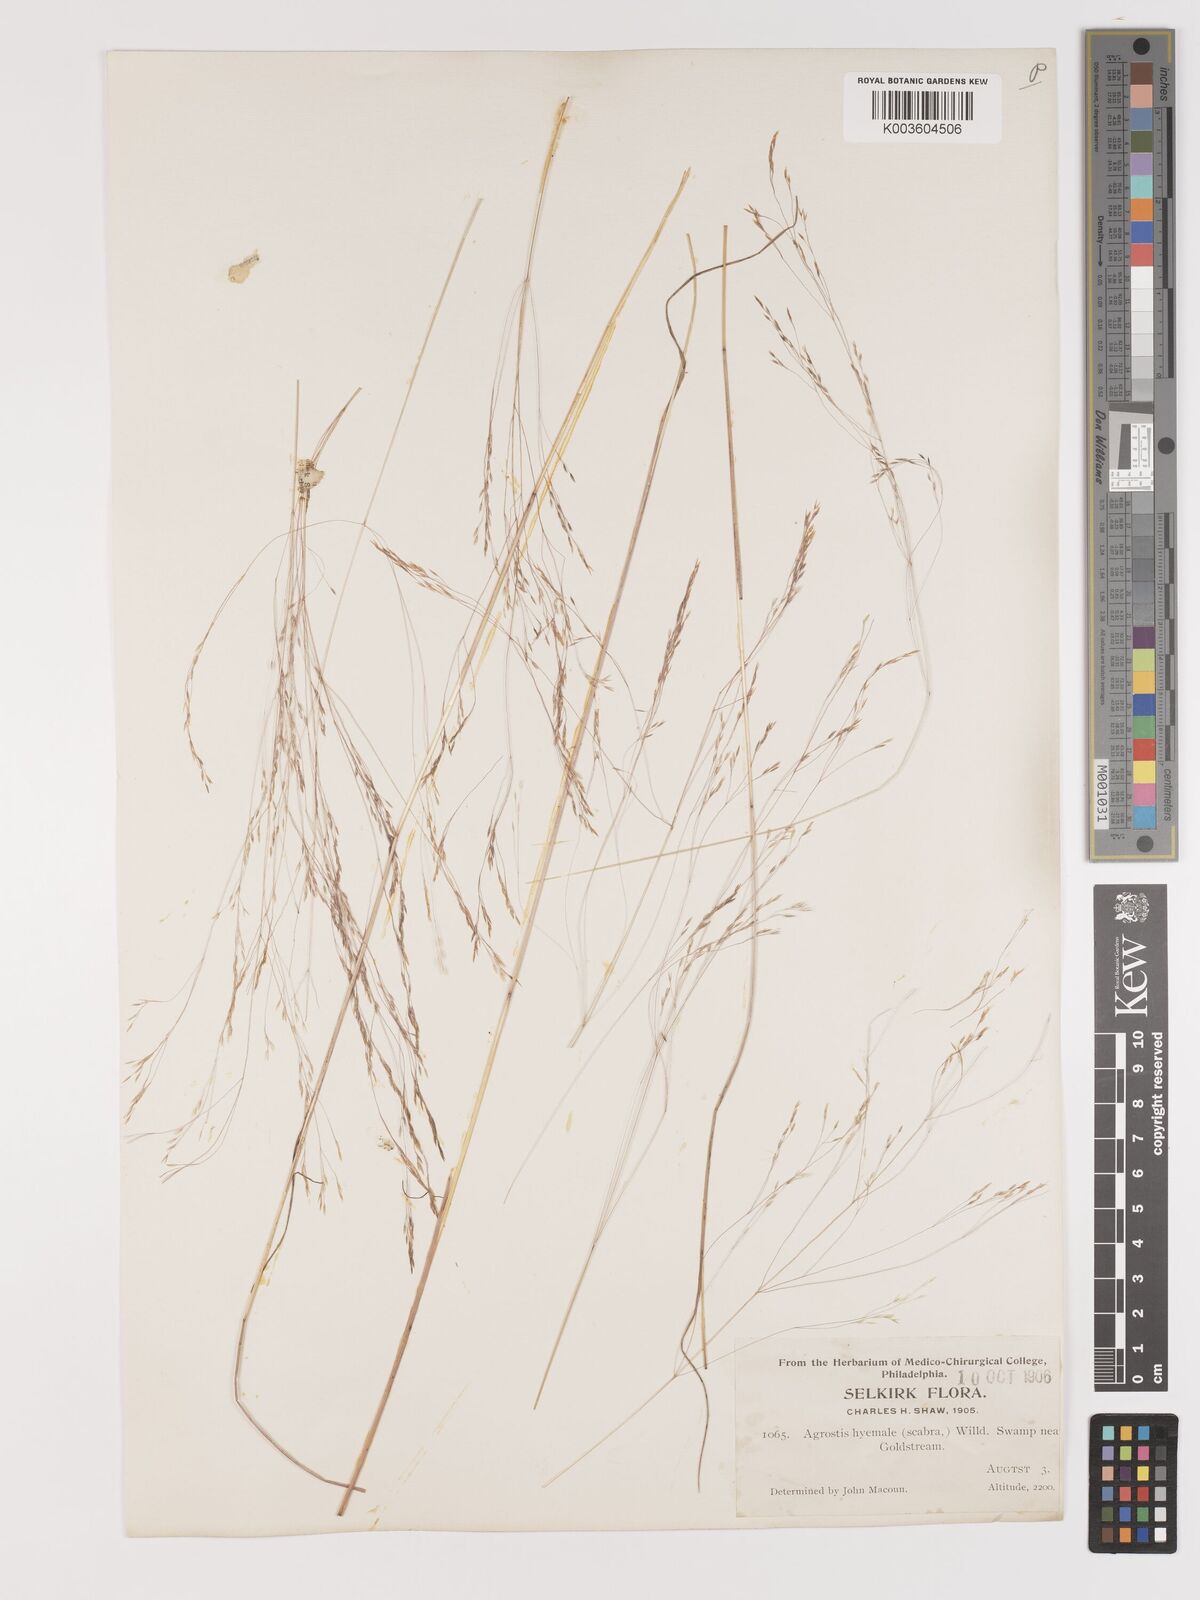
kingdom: Plantae
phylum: Tracheophyta
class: Liliopsida
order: Poales
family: Poaceae
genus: Agrostis
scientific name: Agrostis hyemalis
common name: Small bent
